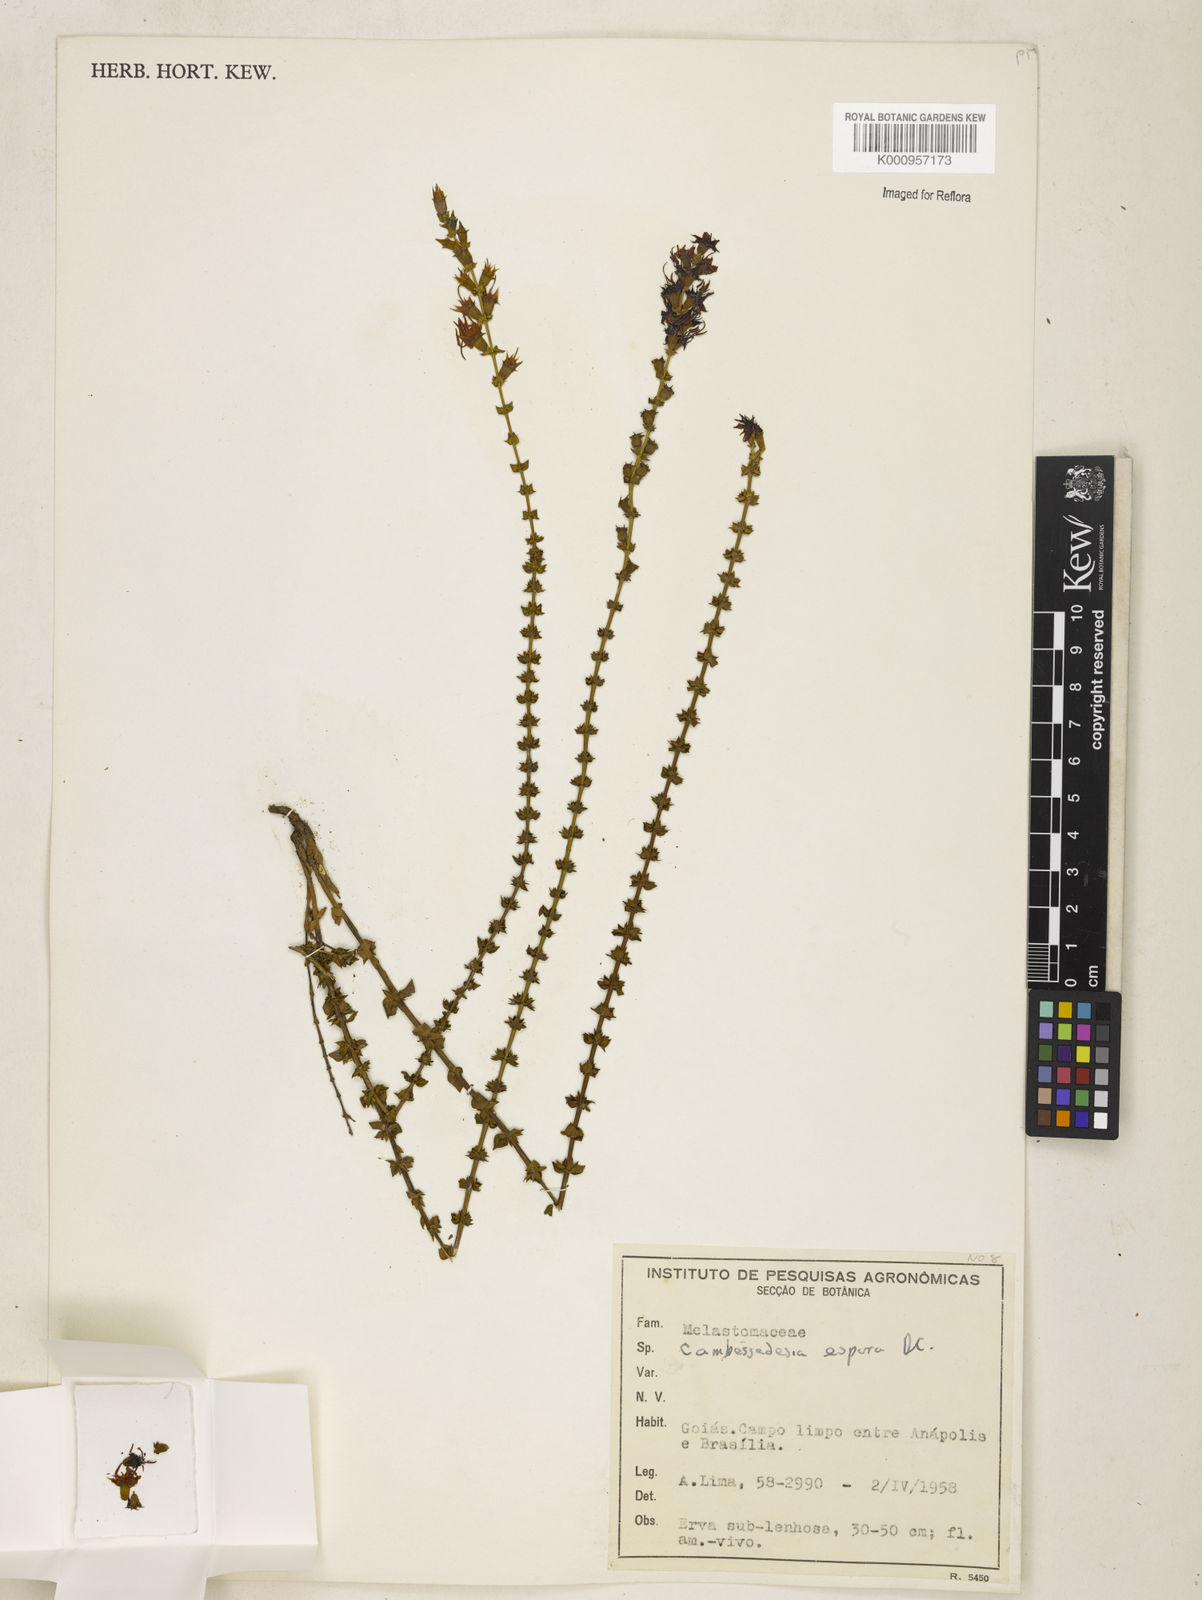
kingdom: Plantae
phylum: Tracheophyta
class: Magnoliopsida
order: Myrtales
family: Melastomataceae
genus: Cambessedesia
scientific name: Cambessedesia espora
